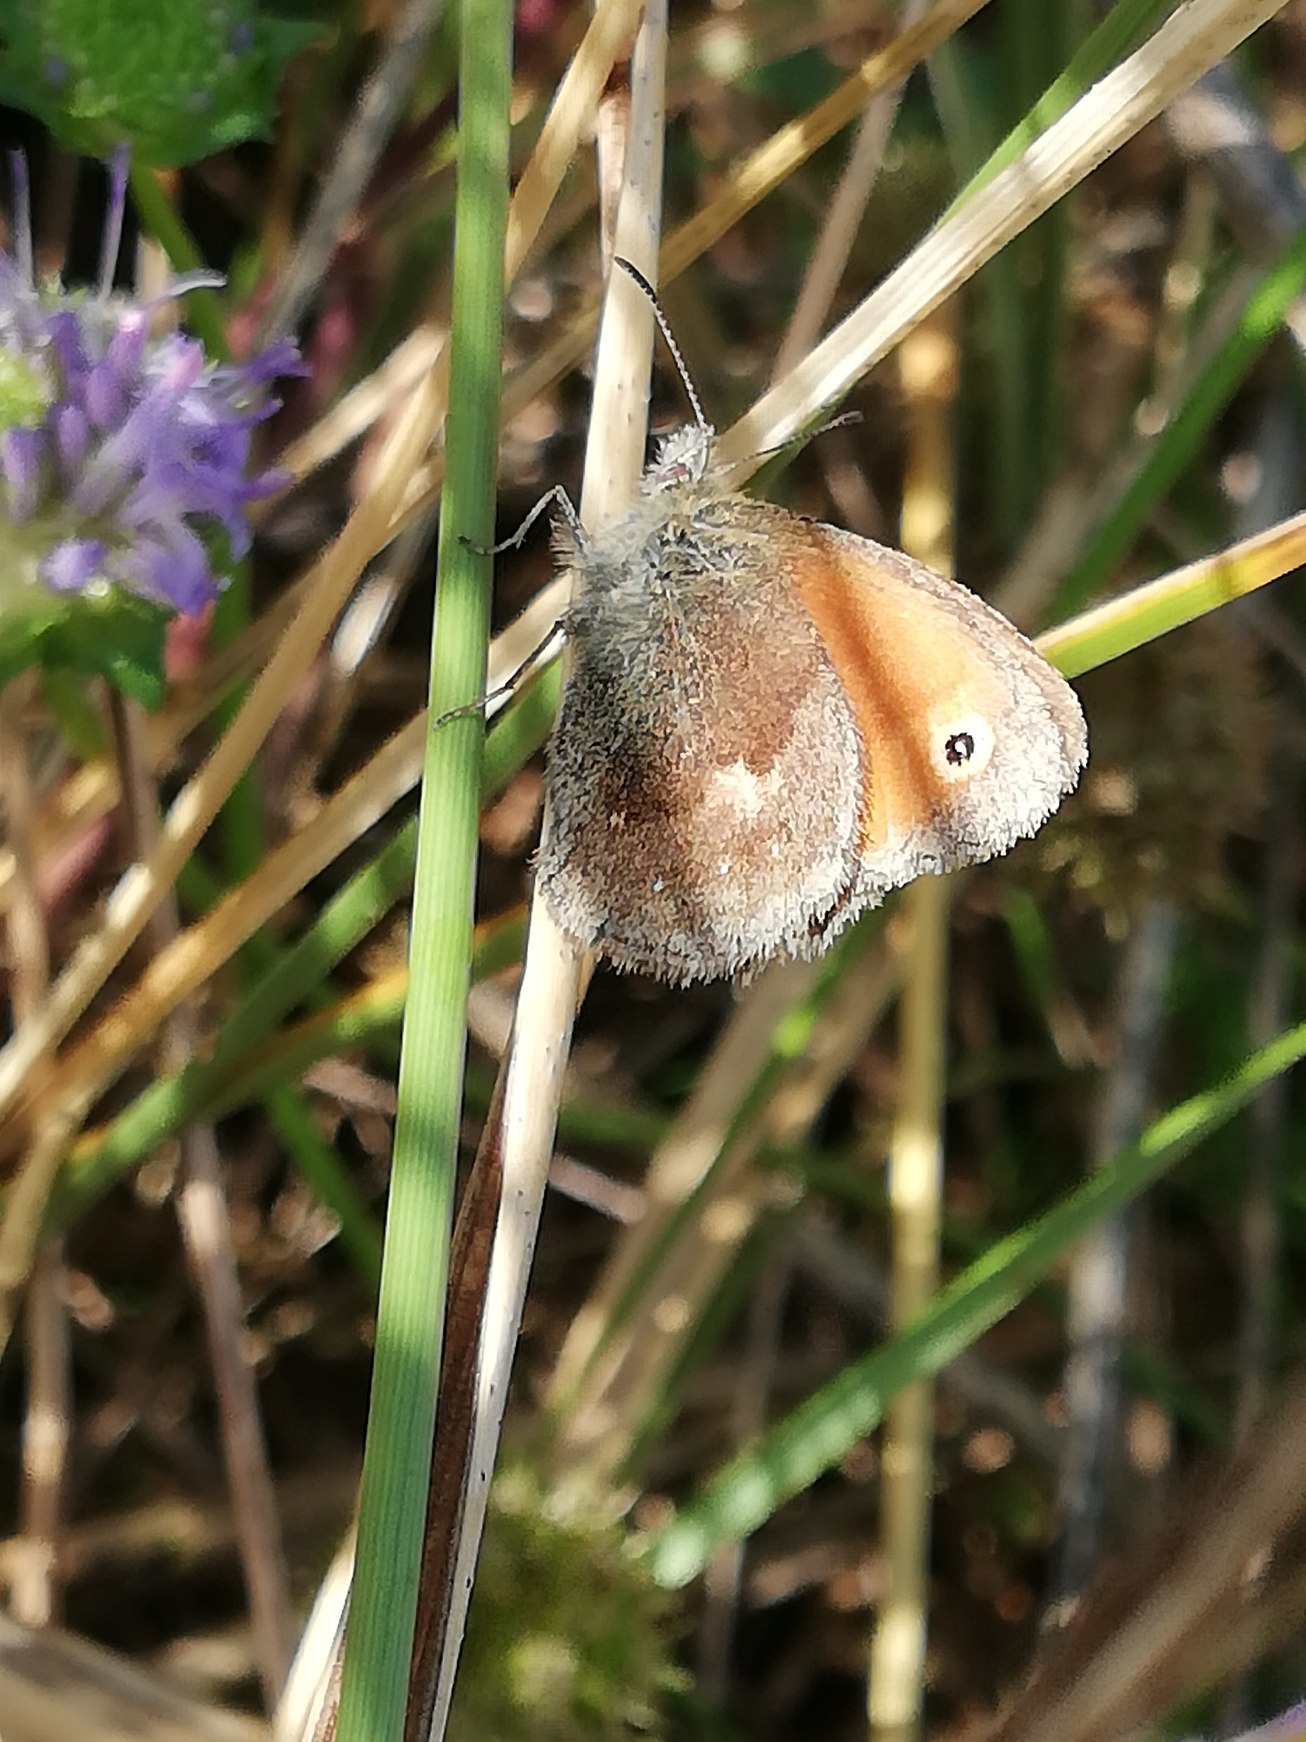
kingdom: Animalia
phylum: Arthropoda
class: Insecta
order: Lepidoptera
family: Nymphalidae
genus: Coenonympha
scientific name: Coenonympha pamphilus
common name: Okkergul randøje
